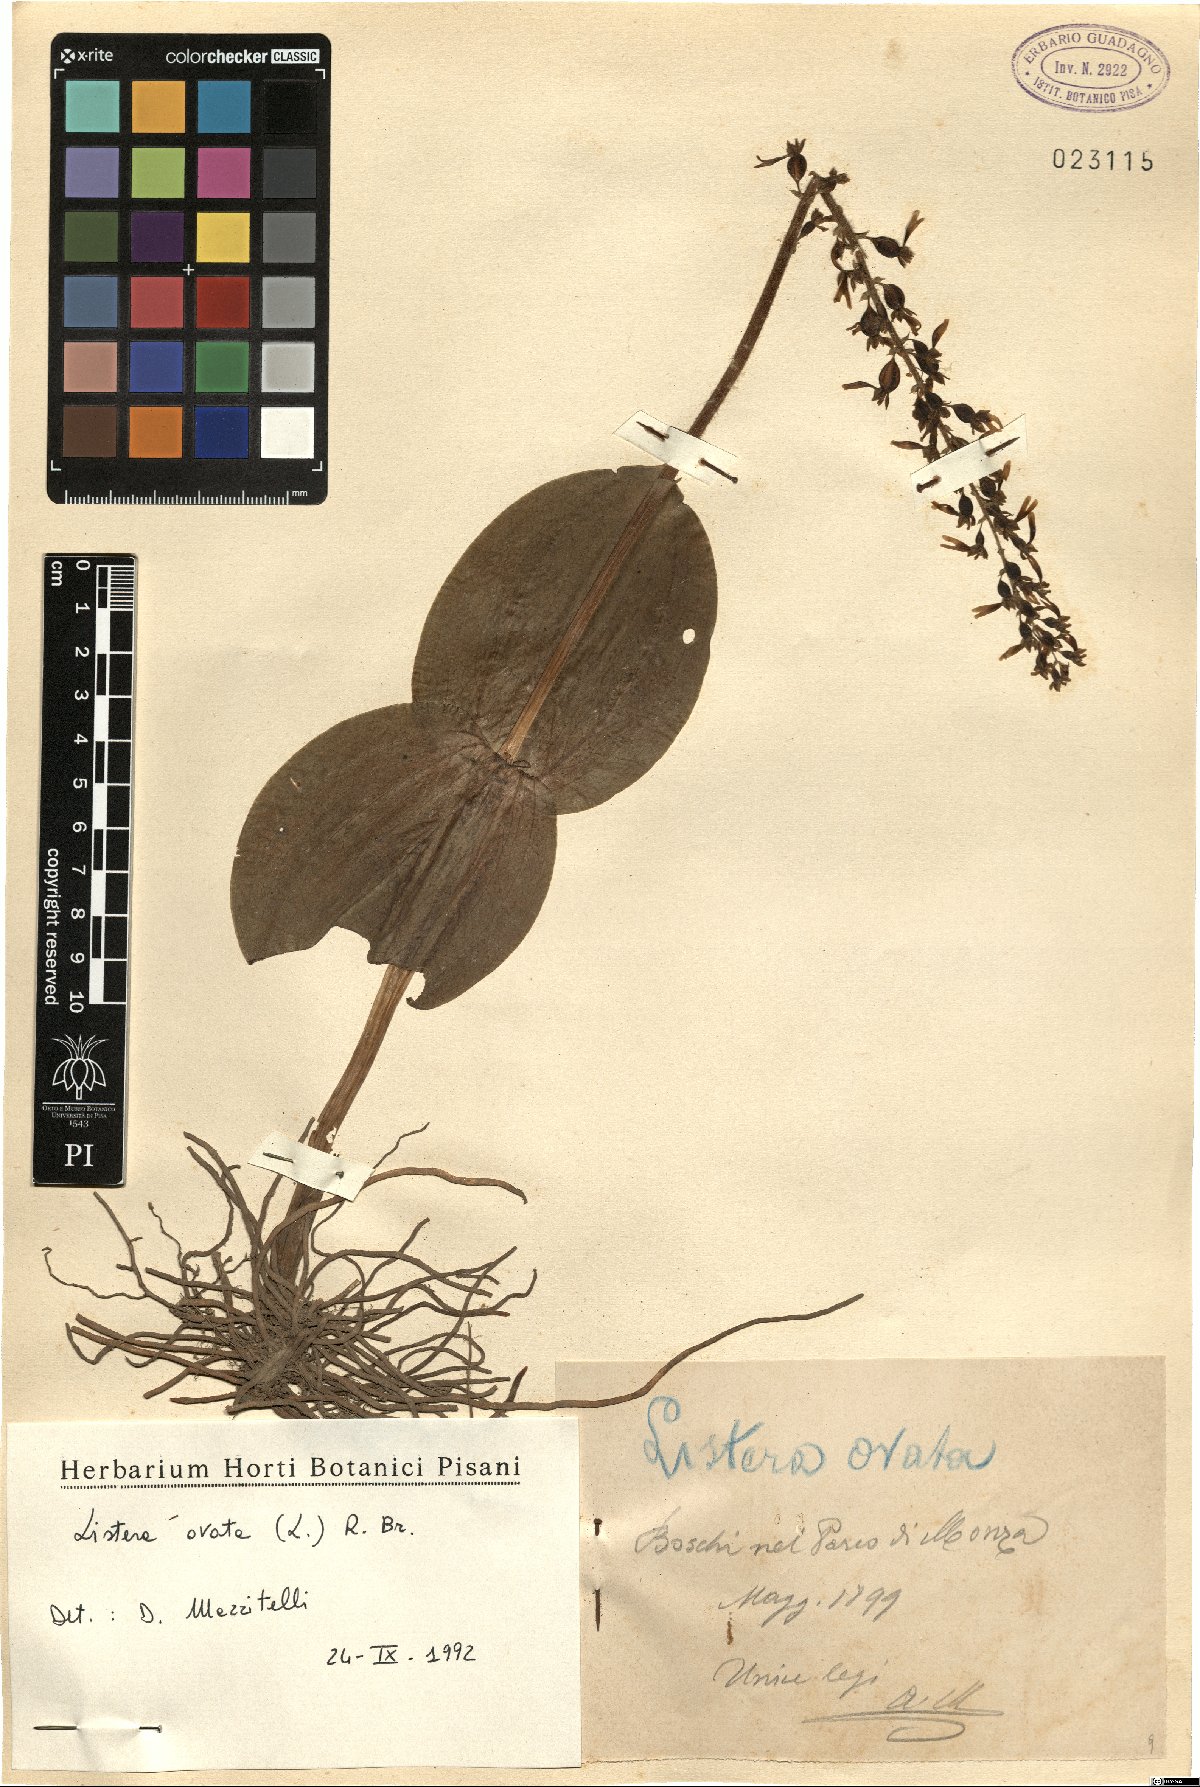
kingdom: Plantae
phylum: Tracheophyta
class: Liliopsida
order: Asparagales
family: Orchidaceae
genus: Neottia
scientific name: Neottia ovata
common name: Common twayblade
